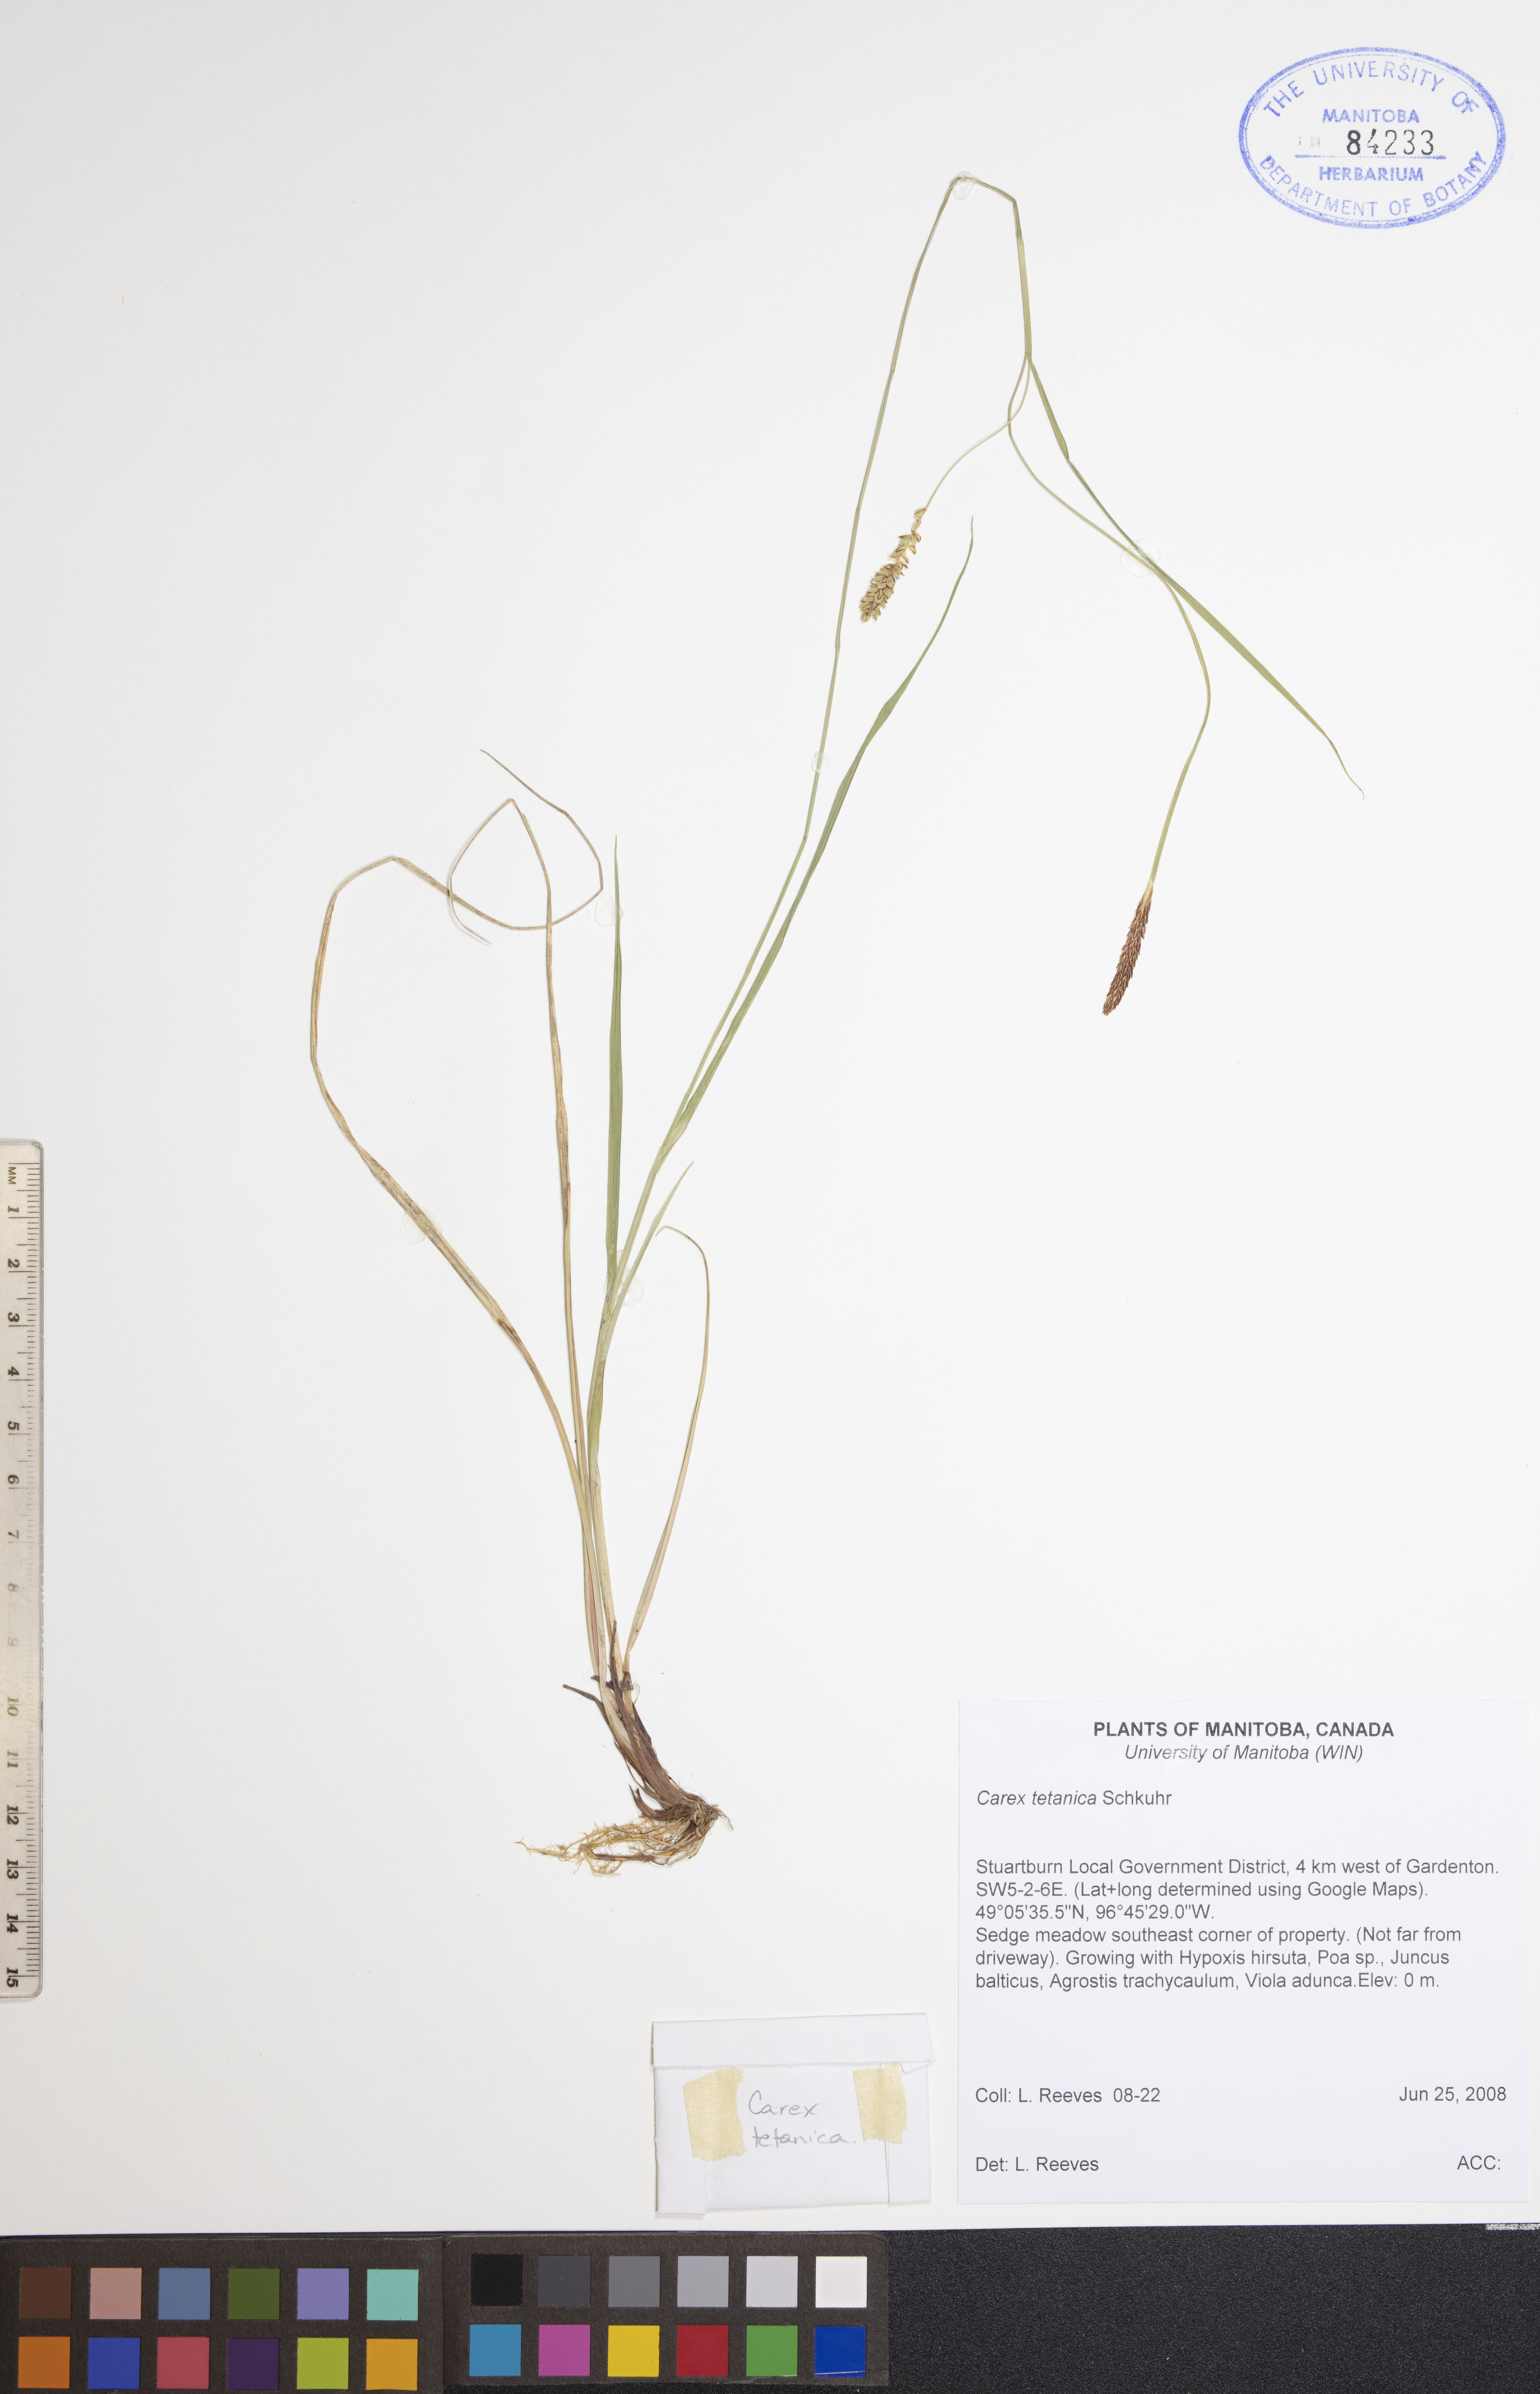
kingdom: Plantae
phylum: Tracheophyta
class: Liliopsida
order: Poales
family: Cyperaceae
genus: Carex
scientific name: Carex tetanica
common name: Rigid sedge
